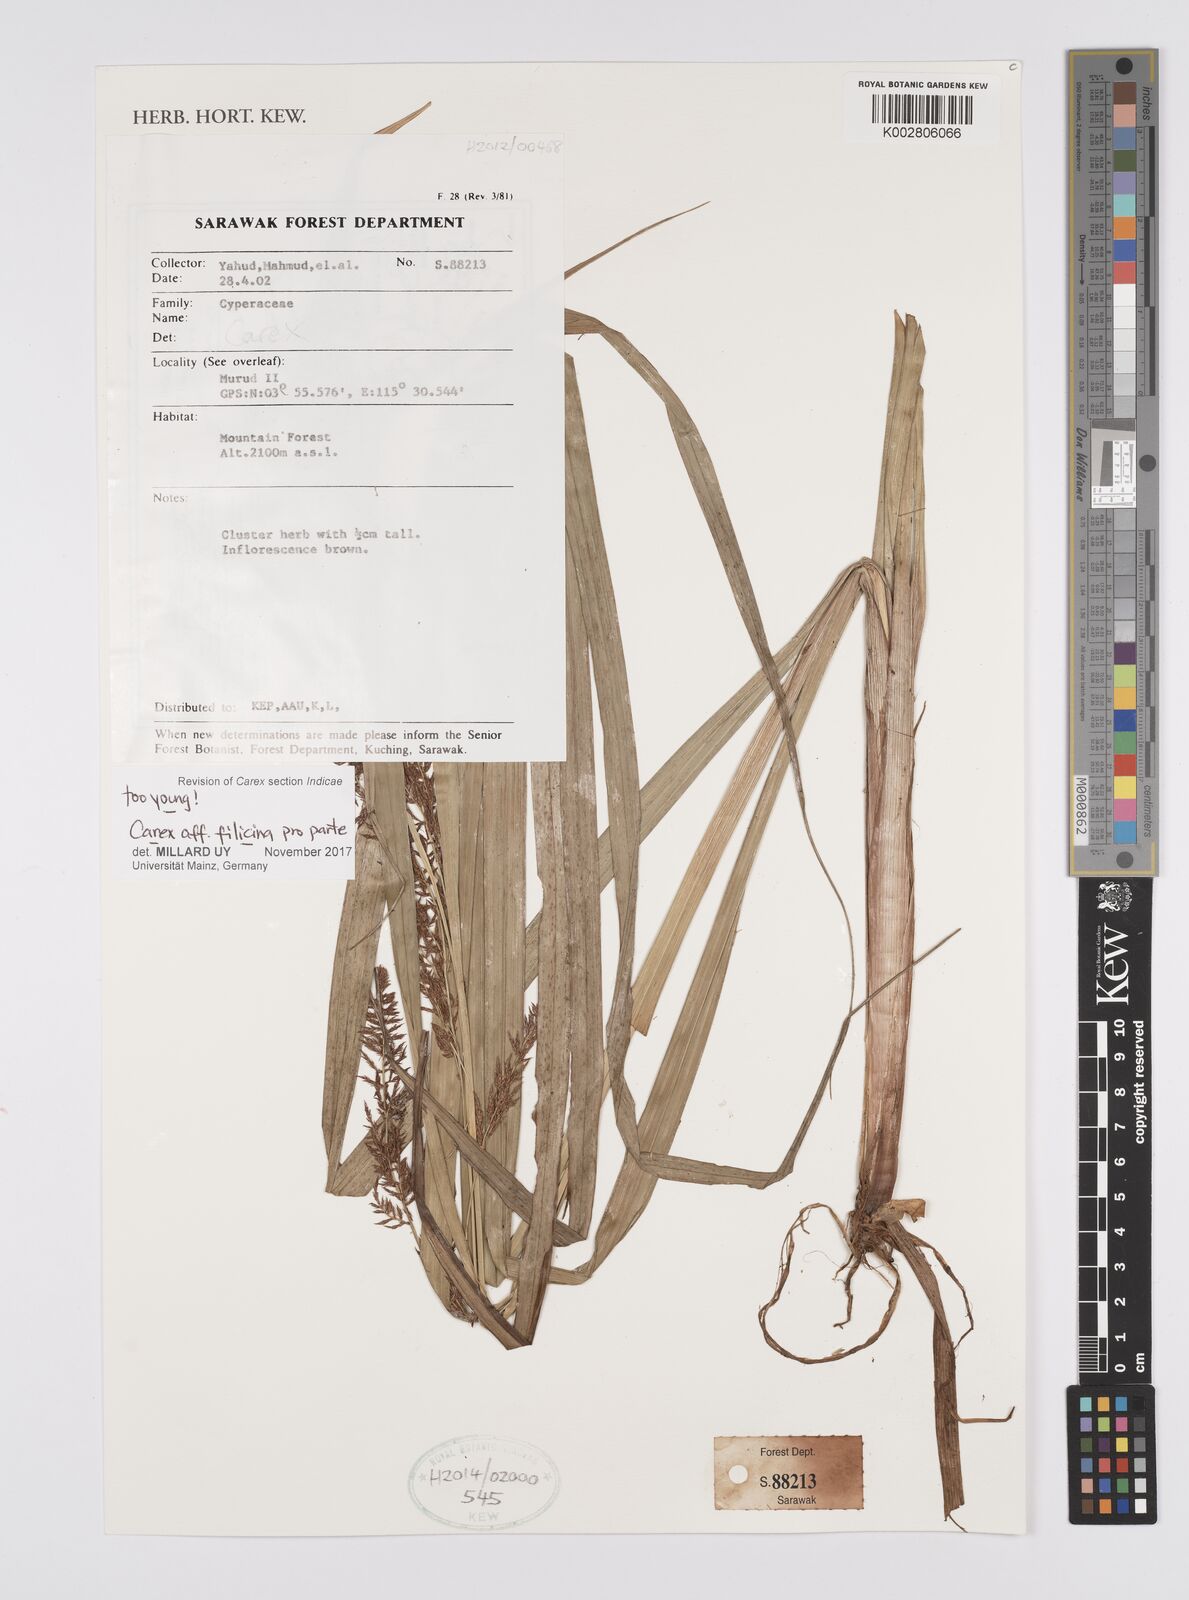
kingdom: Plantae
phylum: Tracheophyta
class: Liliopsida
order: Poales
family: Cyperaceae
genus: Carex
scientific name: Carex filicina
